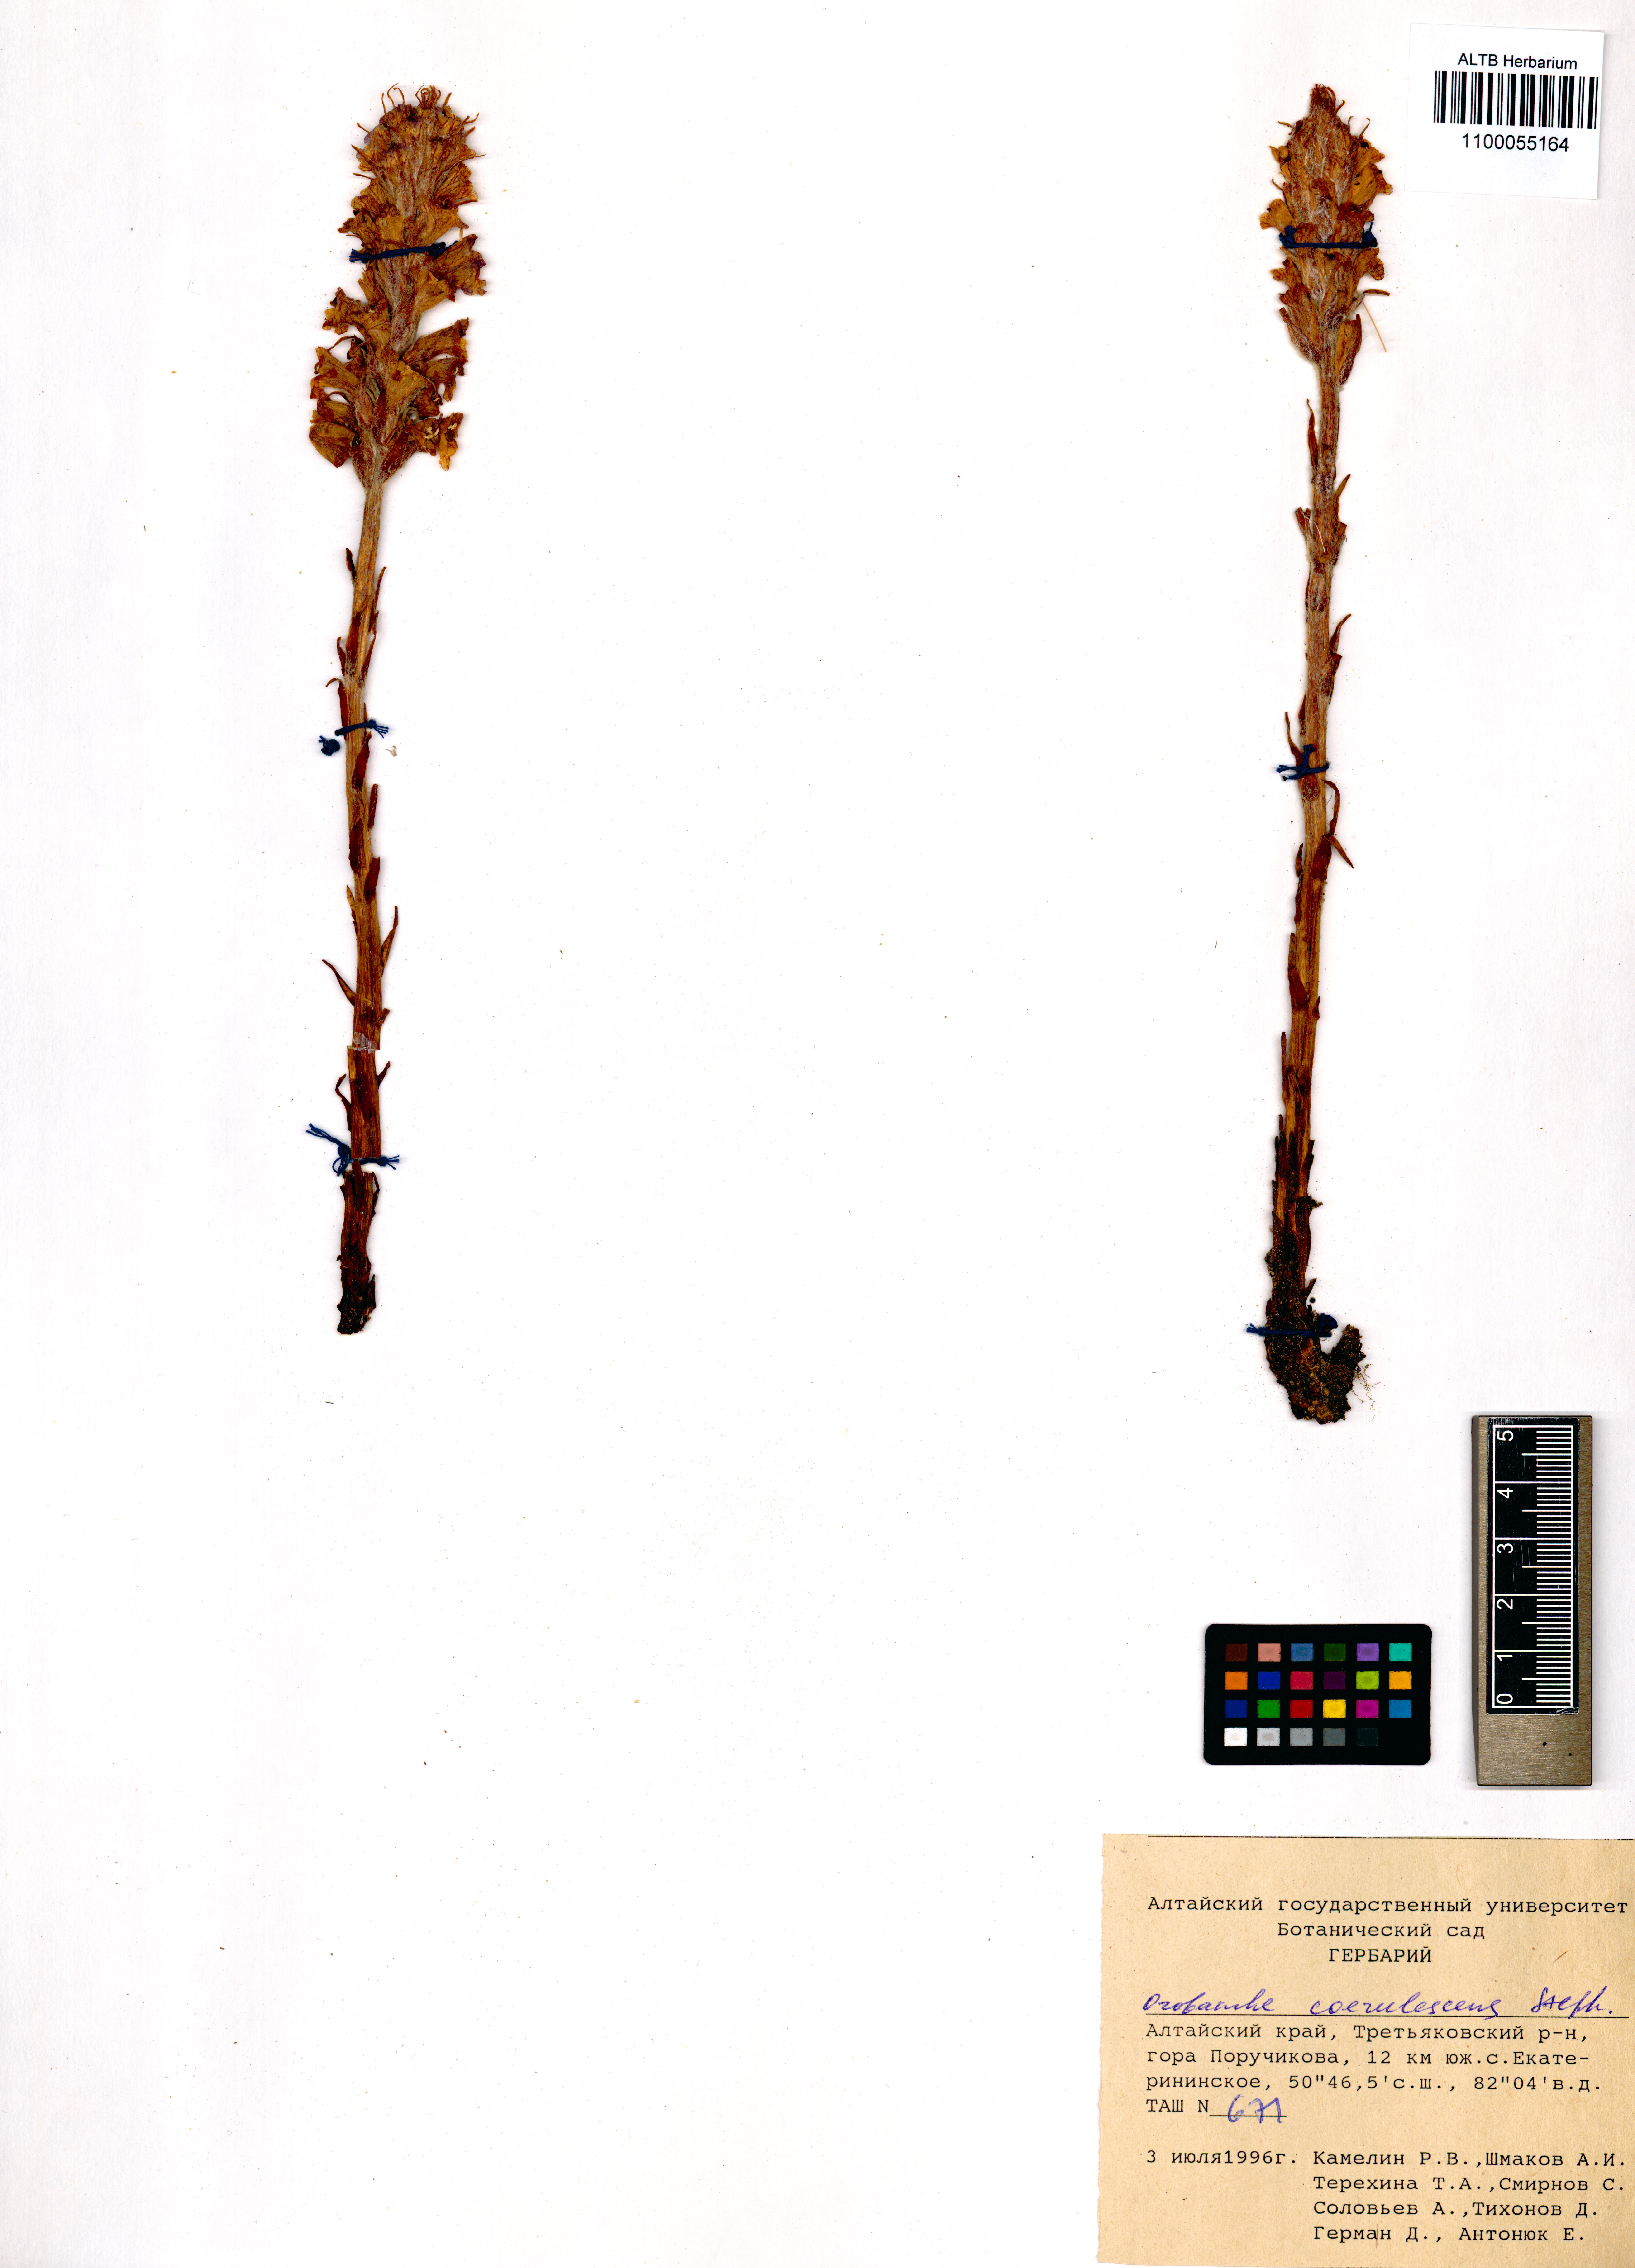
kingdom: Plantae
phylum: Tracheophyta
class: Magnoliopsida
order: Lamiales
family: Orobanchaceae
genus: Orobanche
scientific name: Orobanche coerulescens
